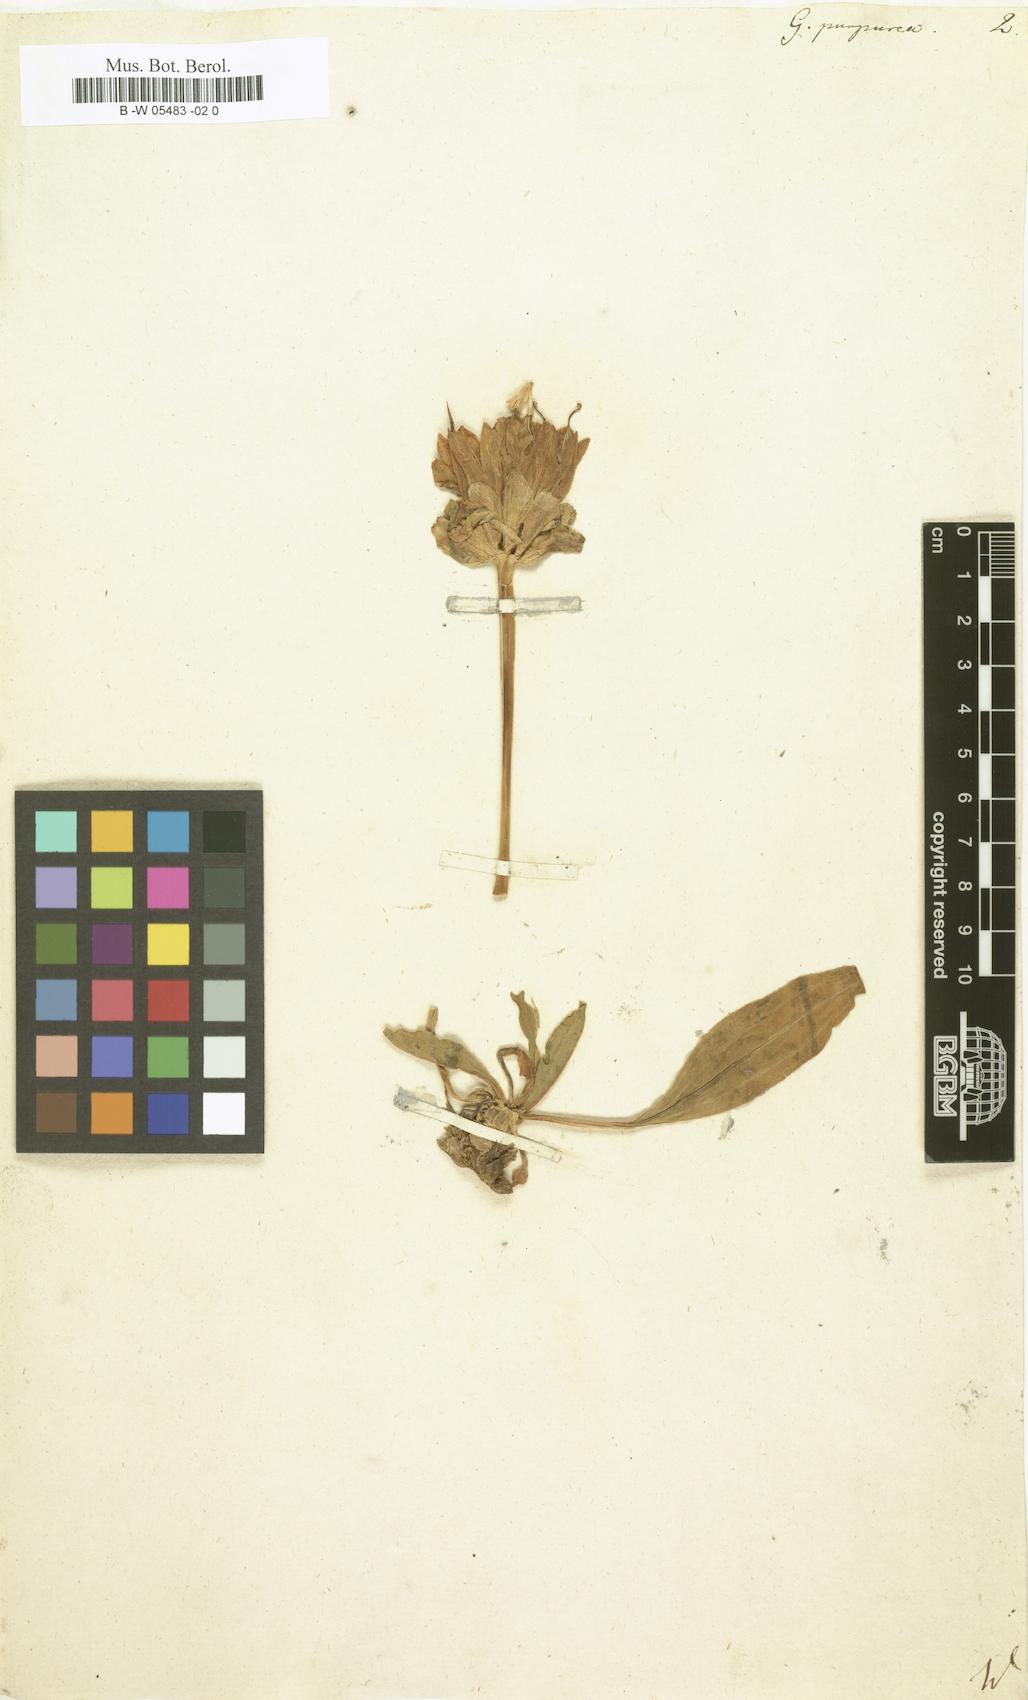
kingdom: Plantae
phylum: Tracheophyta
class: Magnoliopsida
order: Gentianales
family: Gentianaceae
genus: Gentiana
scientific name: Gentiana purpurea
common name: Purple gentian
